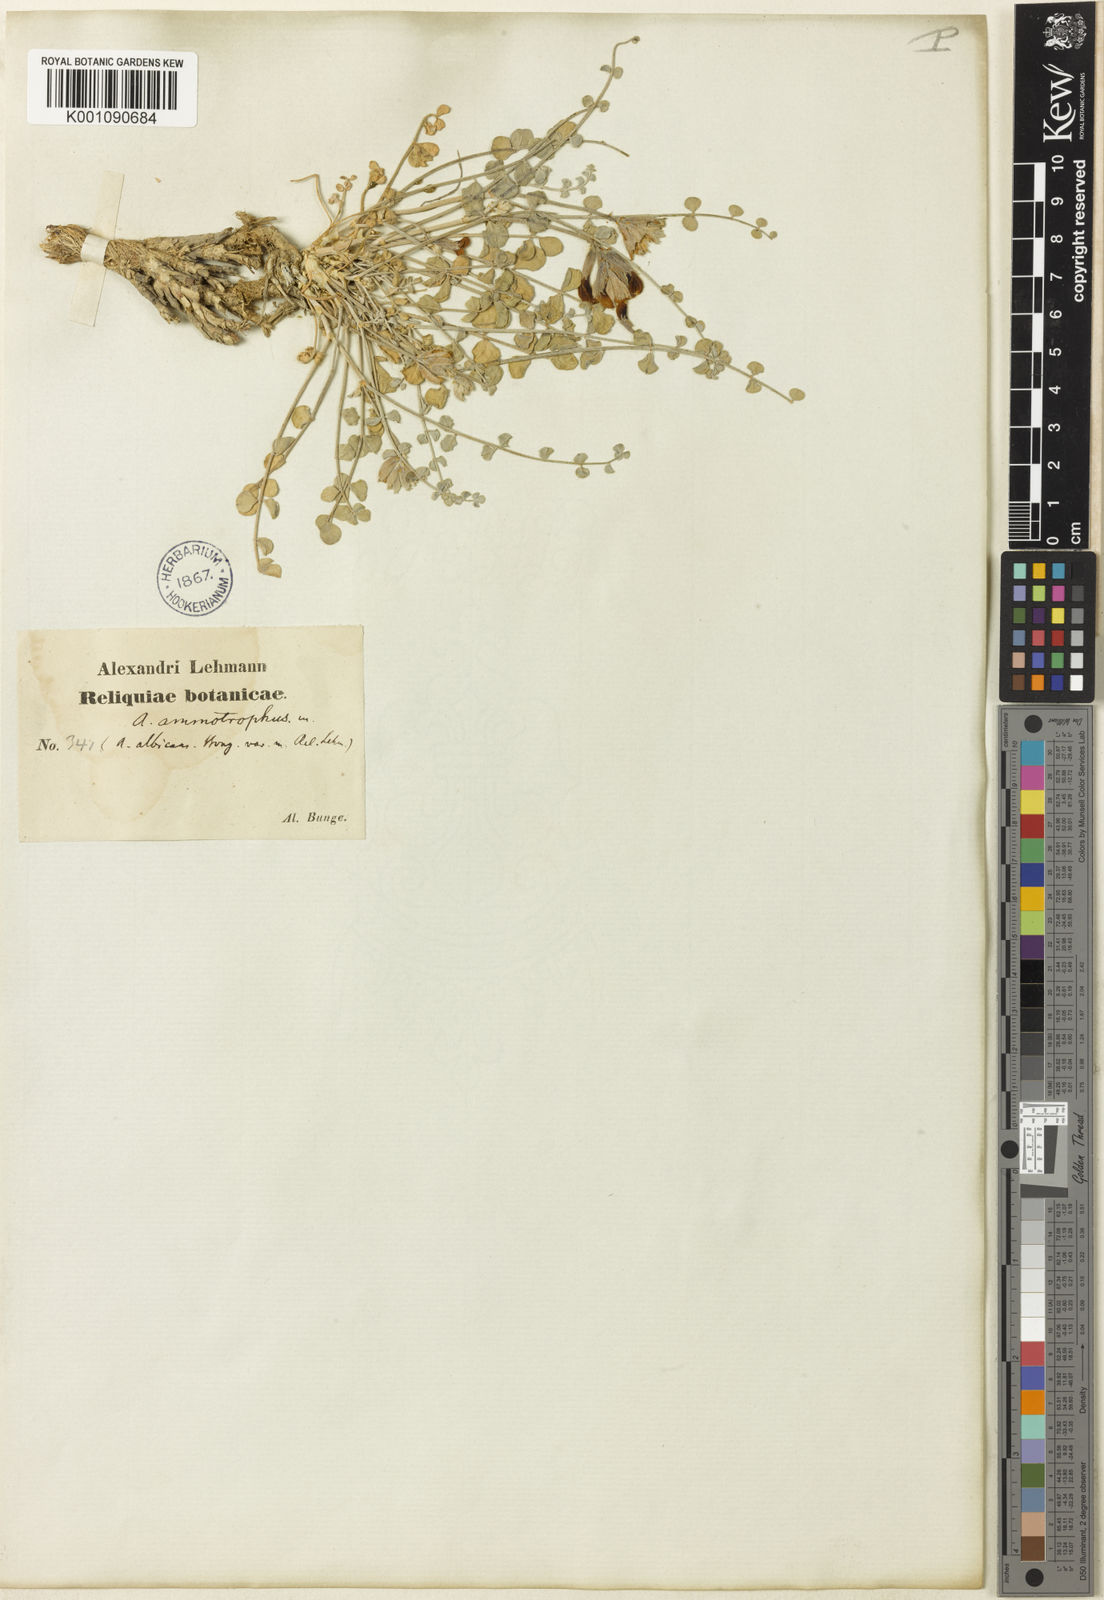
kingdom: Plantae
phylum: Tracheophyta
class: Magnoliopsida
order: Fabales
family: Fabaceae
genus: Astragalus
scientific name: Astragalus
